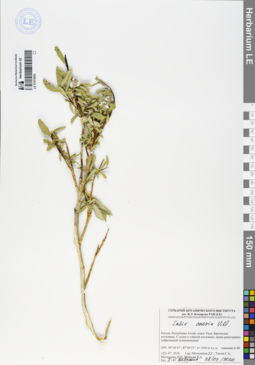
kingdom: Plantae
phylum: Tracheophyta
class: Magnoliopsida
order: Malpighiales
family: Salicaceae
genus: Salix
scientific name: Salix caesia
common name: Blue willow
